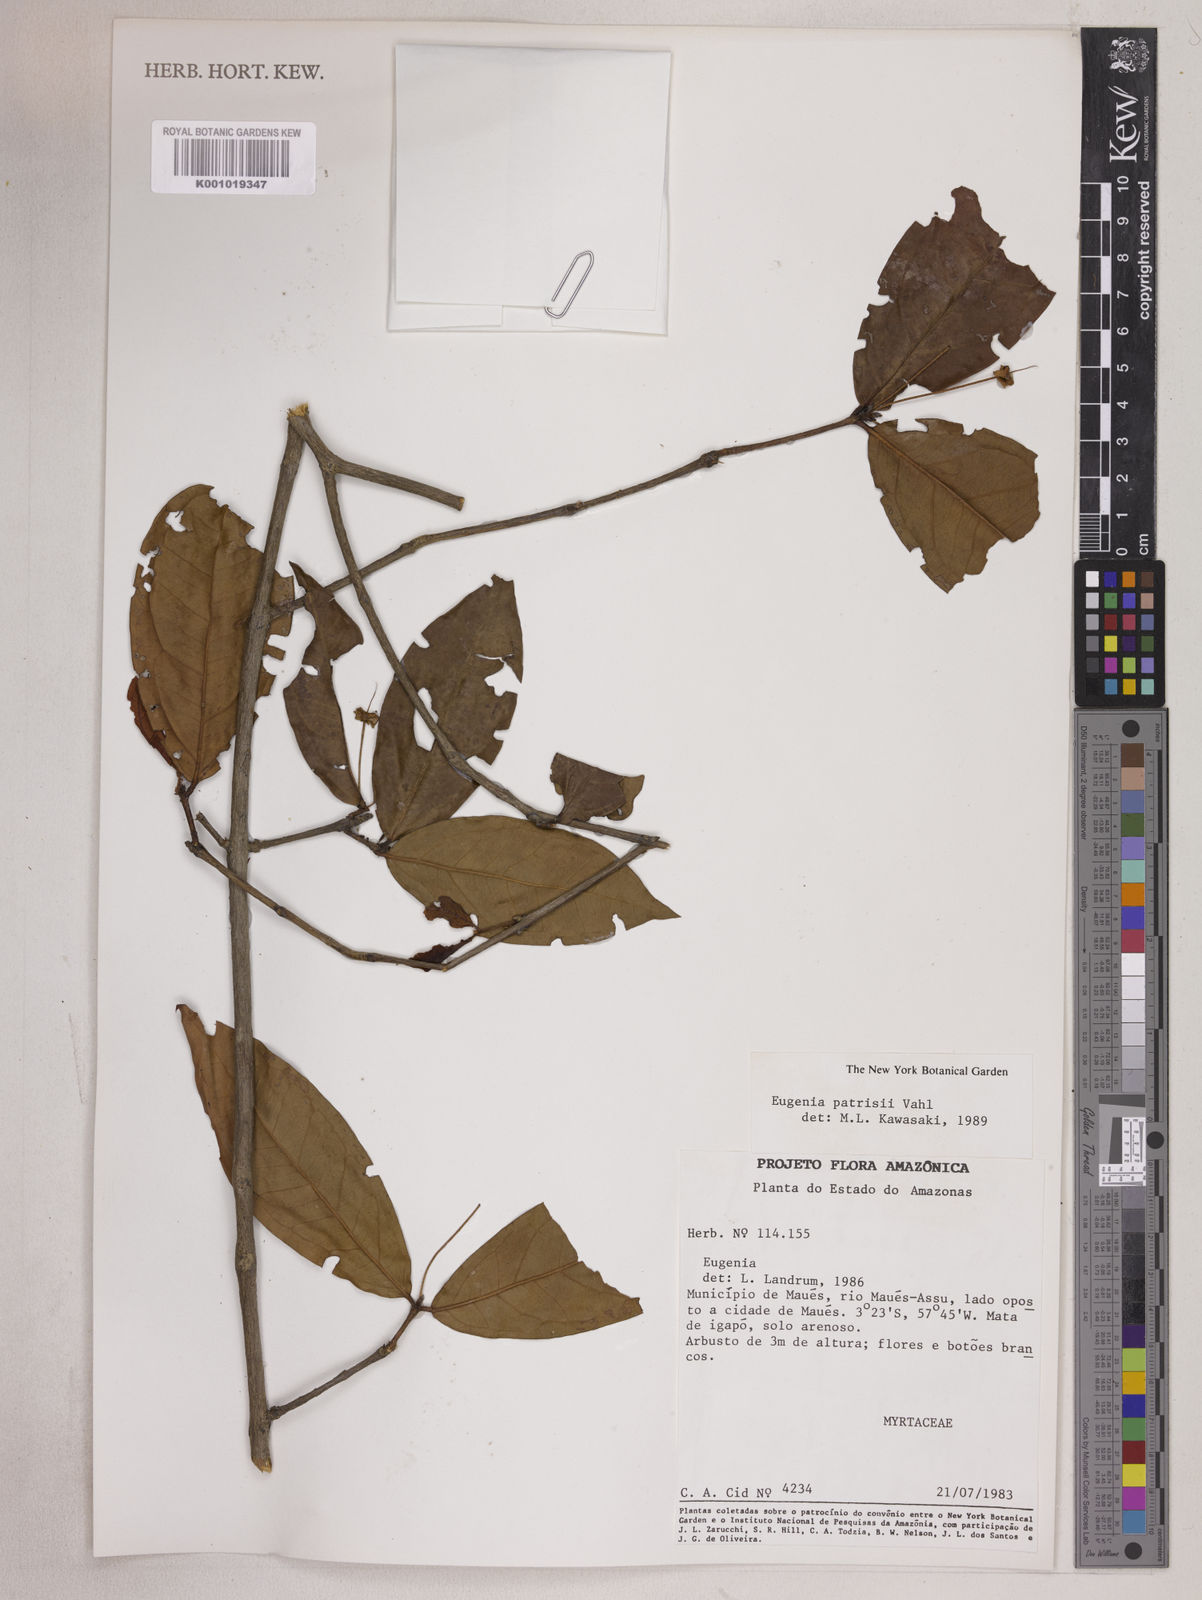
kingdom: Plantae
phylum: Tracheophyta
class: Magnoliopsida
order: Myrtales
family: Myrtaceae
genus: Eugenia
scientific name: Eugenia patrisii
